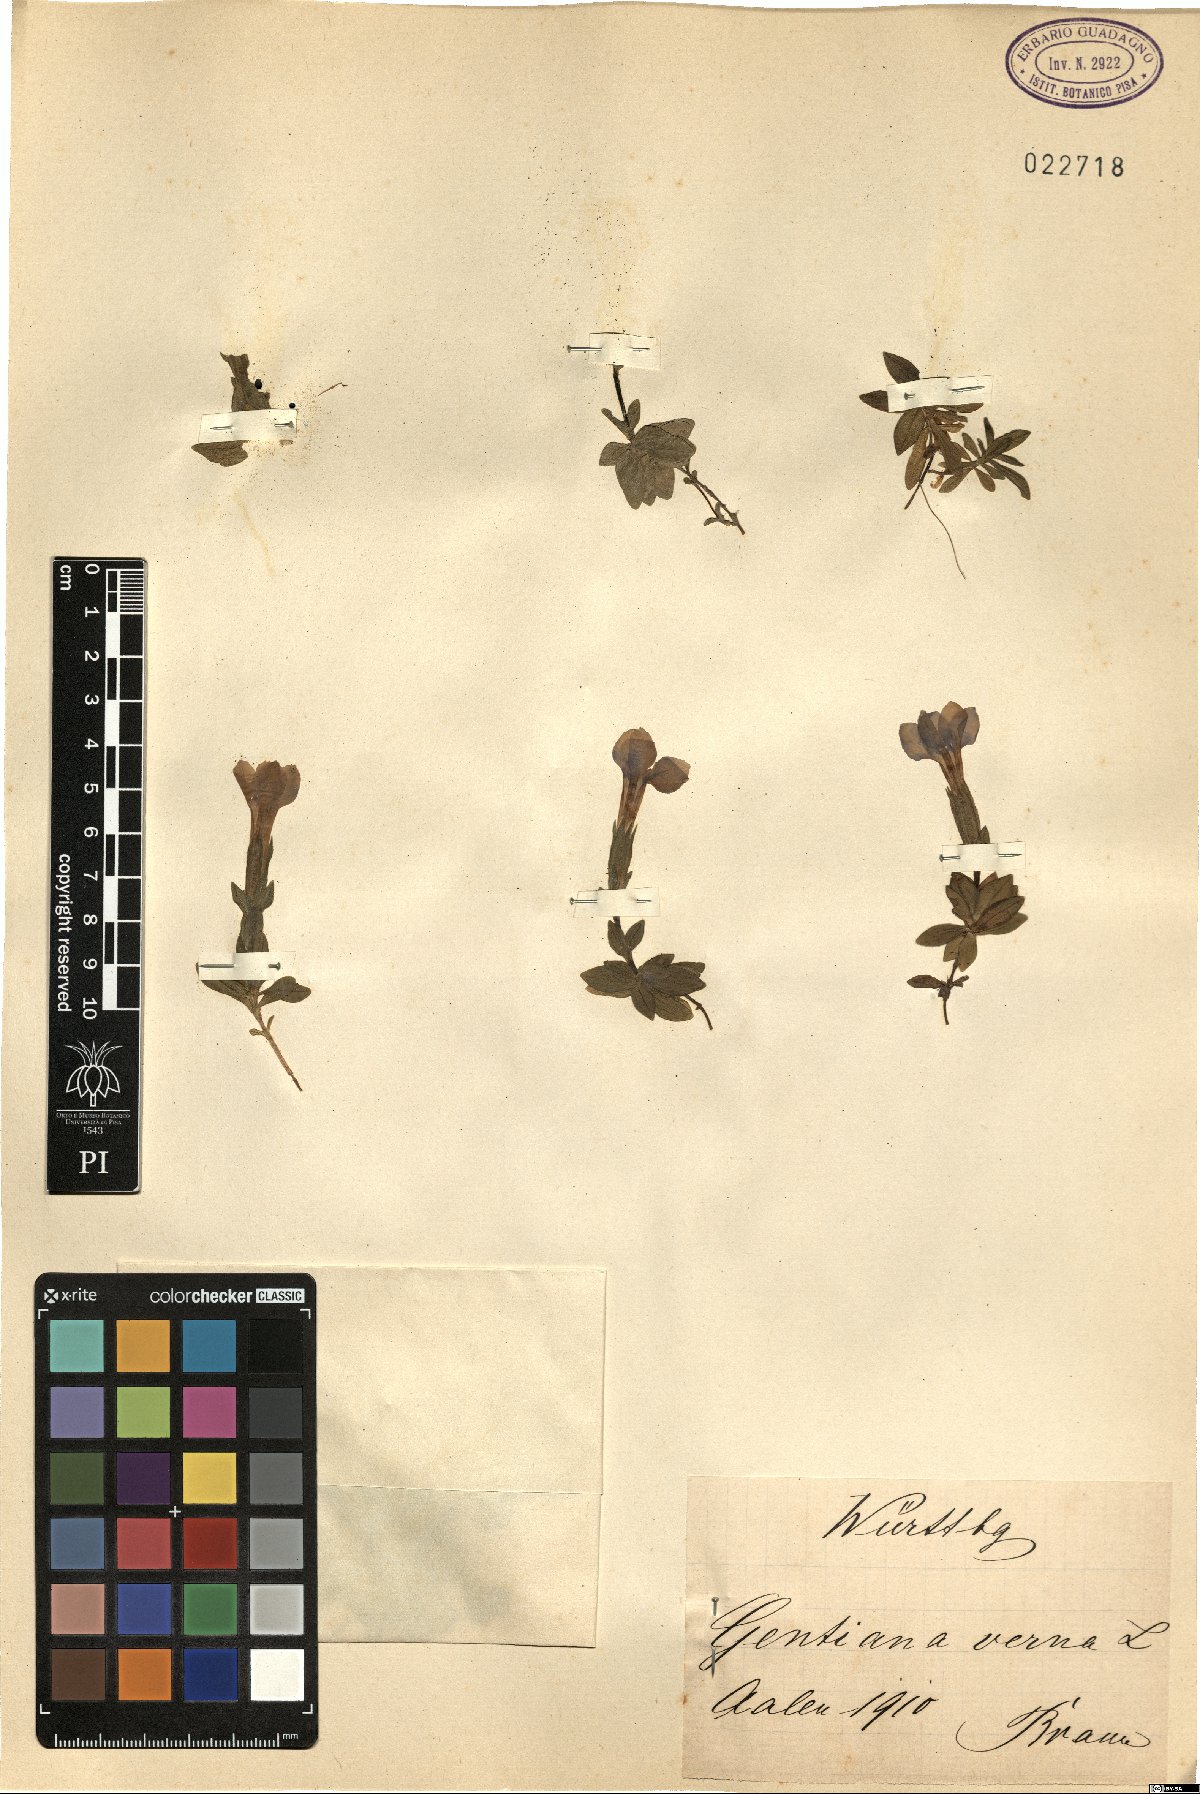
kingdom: Plantae
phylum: Tracheophyta
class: Magnoliopsida
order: Gentianales
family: Gentianaceae
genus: Gentiana
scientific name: Gentiana verna
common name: Spring gentian
